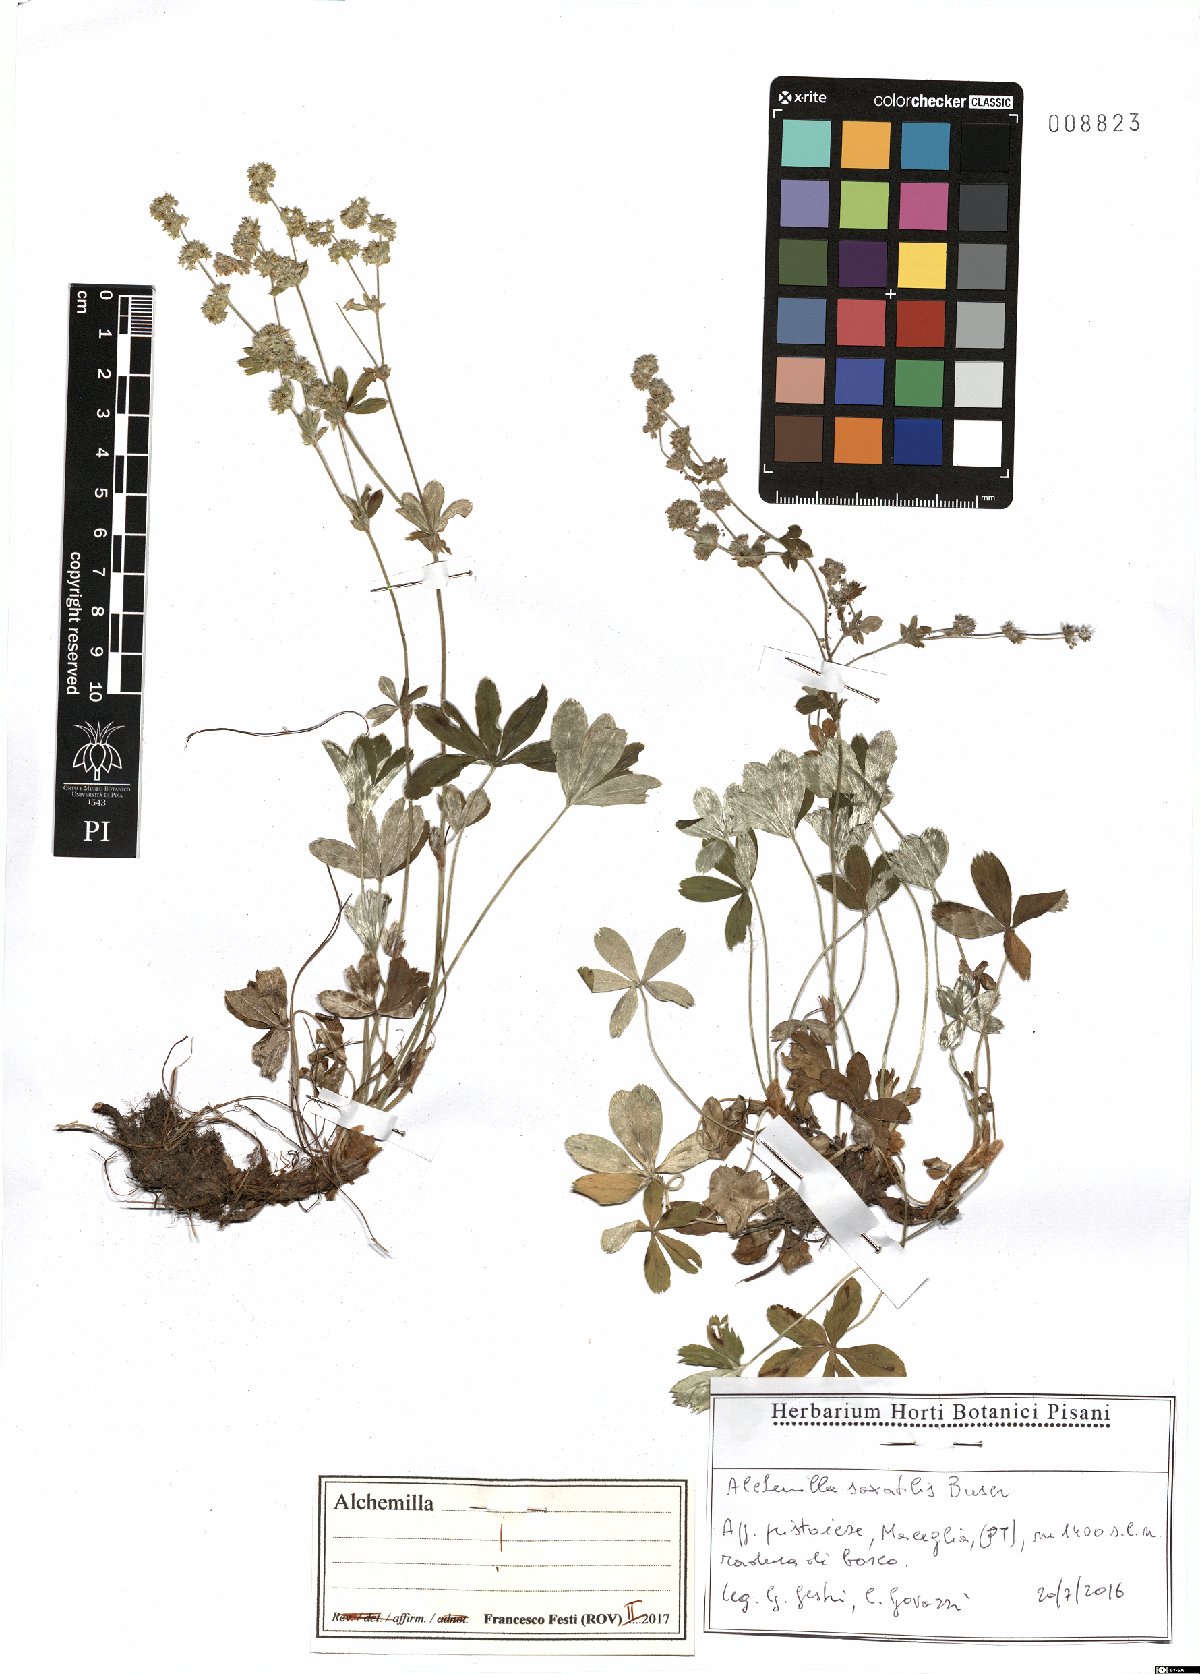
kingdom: Plantae
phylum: Tracheophyta
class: Magnoliopsida
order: Rosales
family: Rosaceae
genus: Alchemilla
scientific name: Alchemilla saxatilis
